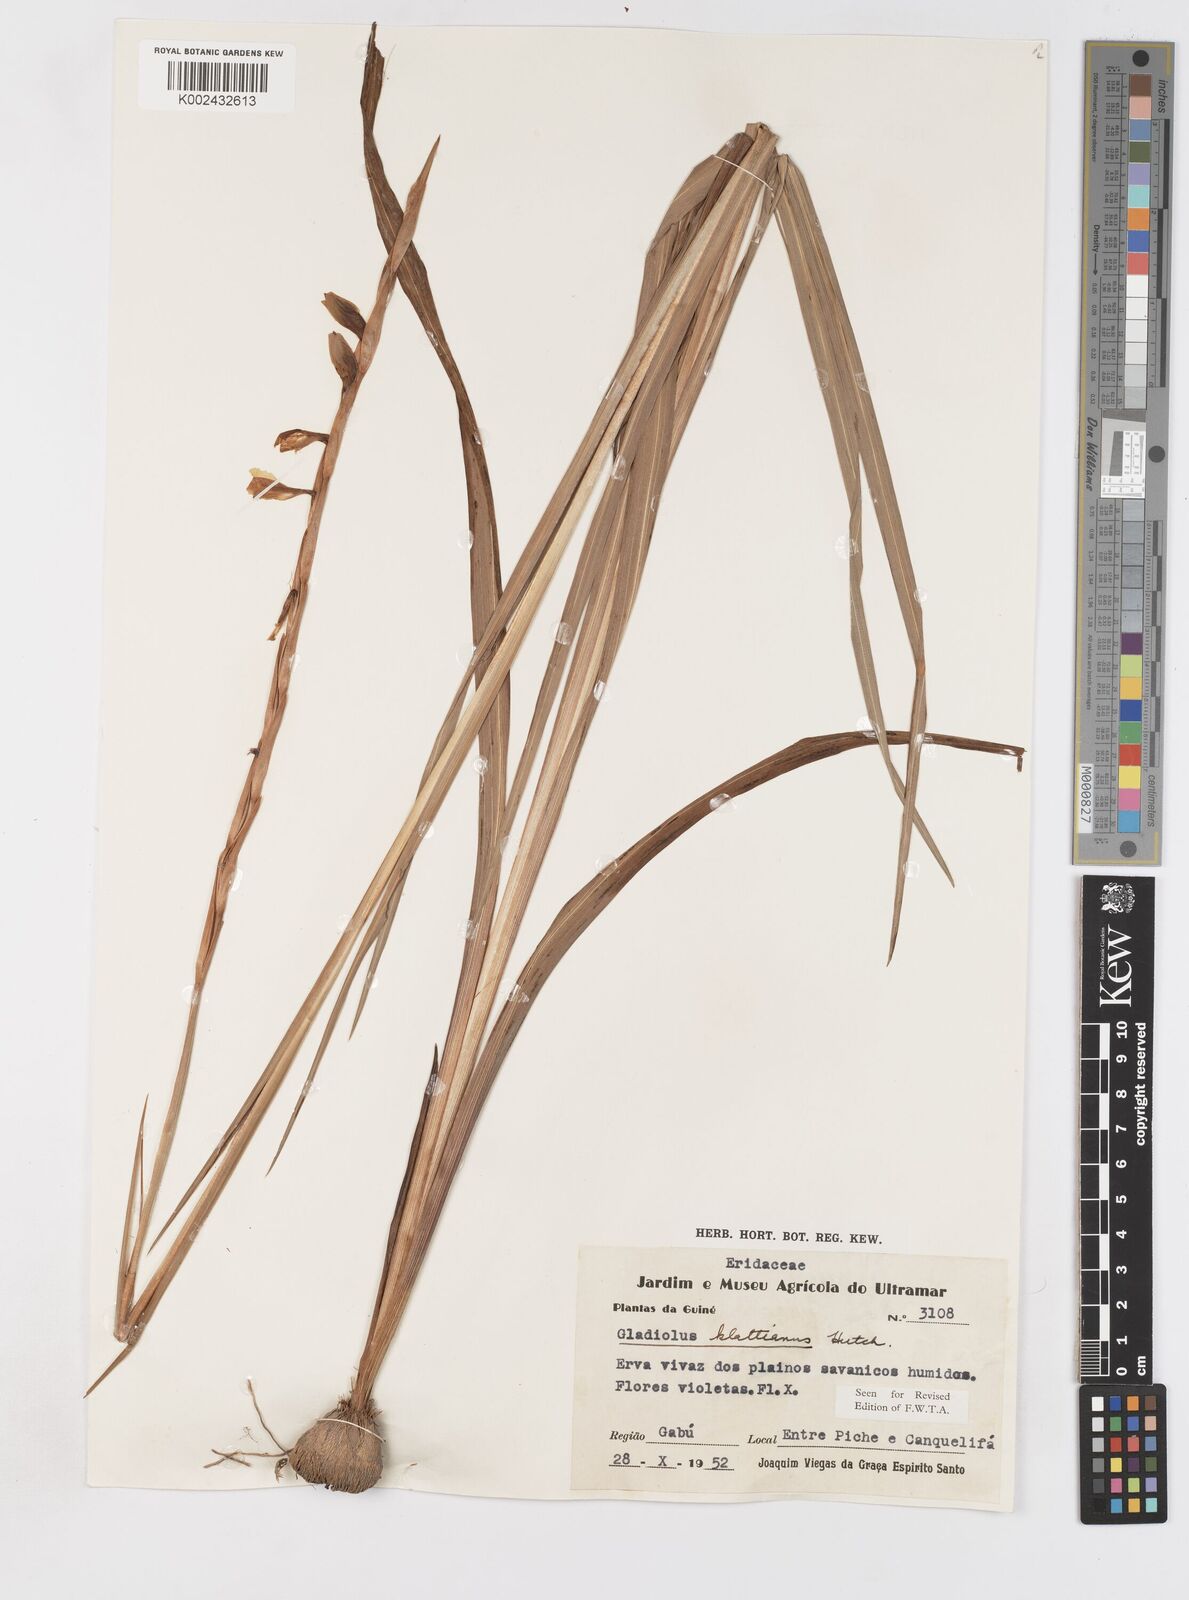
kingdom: Plantae
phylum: Tracheophyta
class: Liliopsida
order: Asparagales
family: Iridaceae
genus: Gladiolus
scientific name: Gladiolus gregarius
